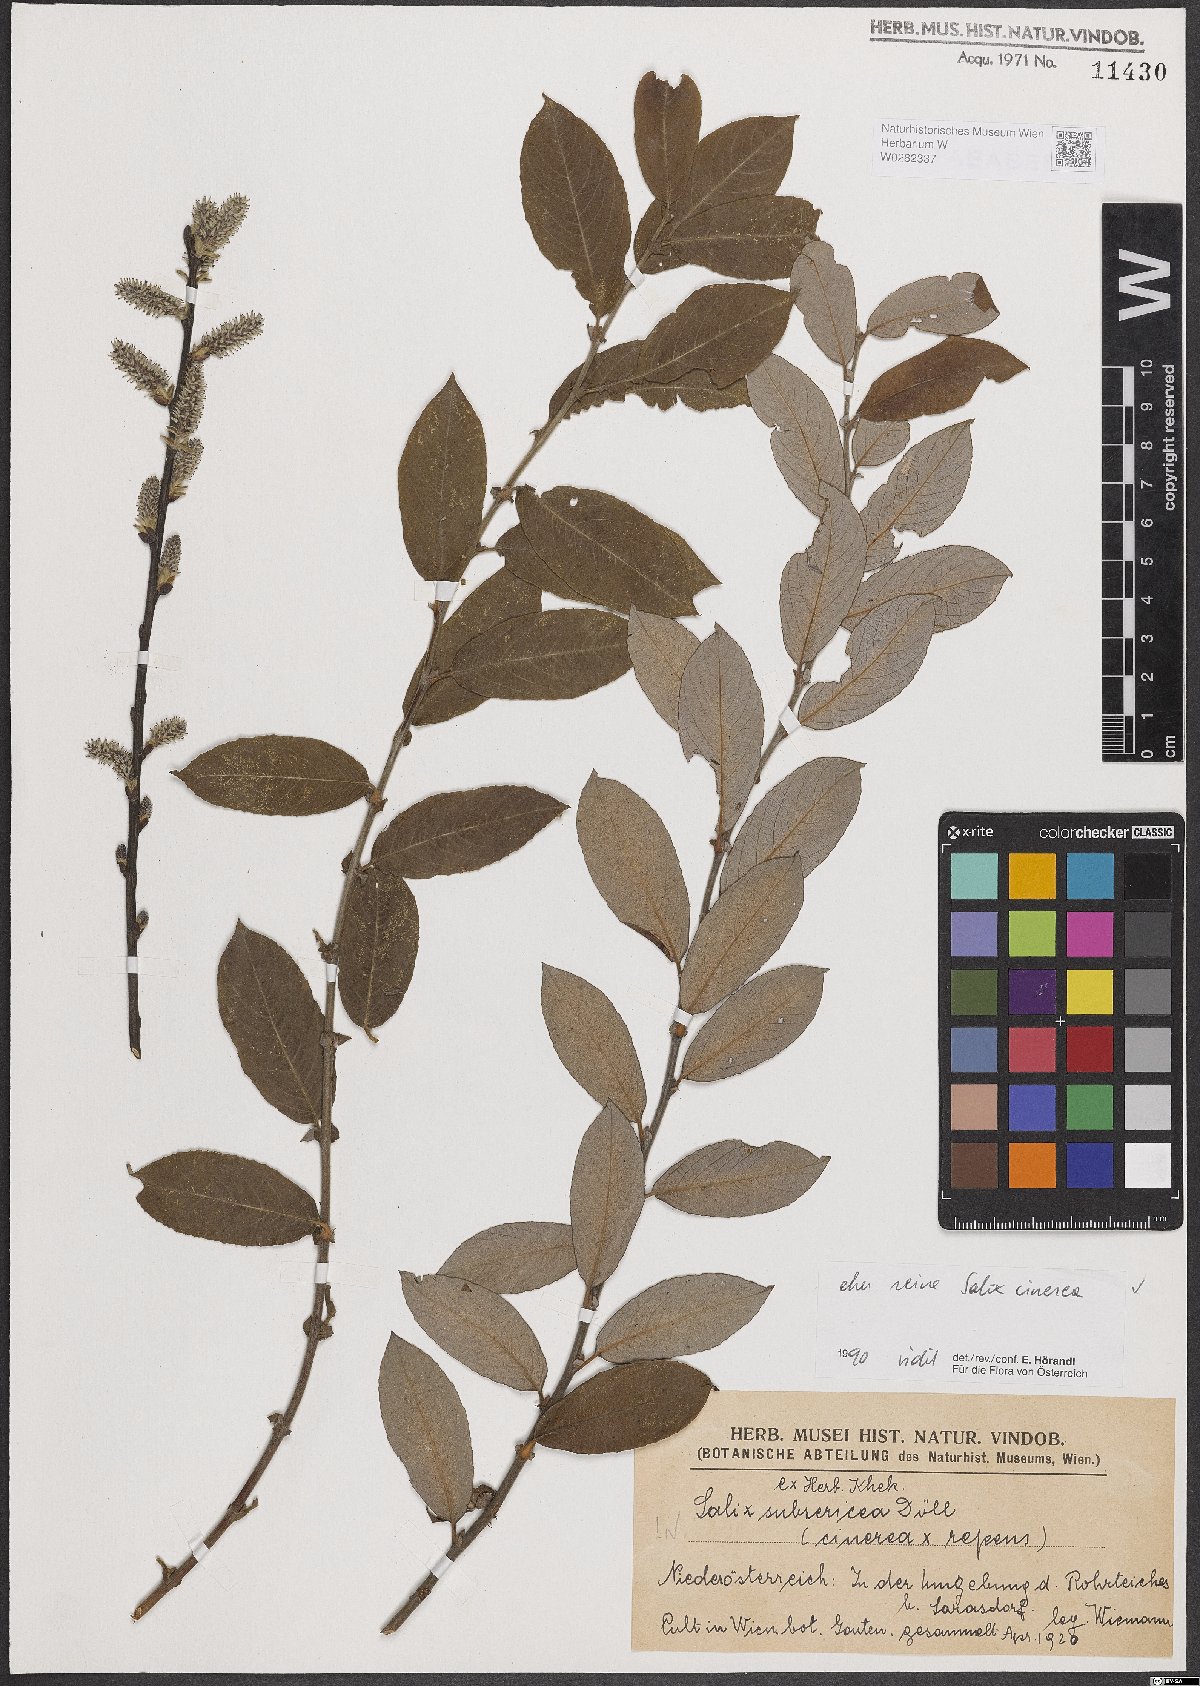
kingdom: Plantae
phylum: Tracheophyta
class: Magnoliopsida
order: Malpighiales
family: Salicaceae
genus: Salix
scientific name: Salix cinerea
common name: Common sallow
